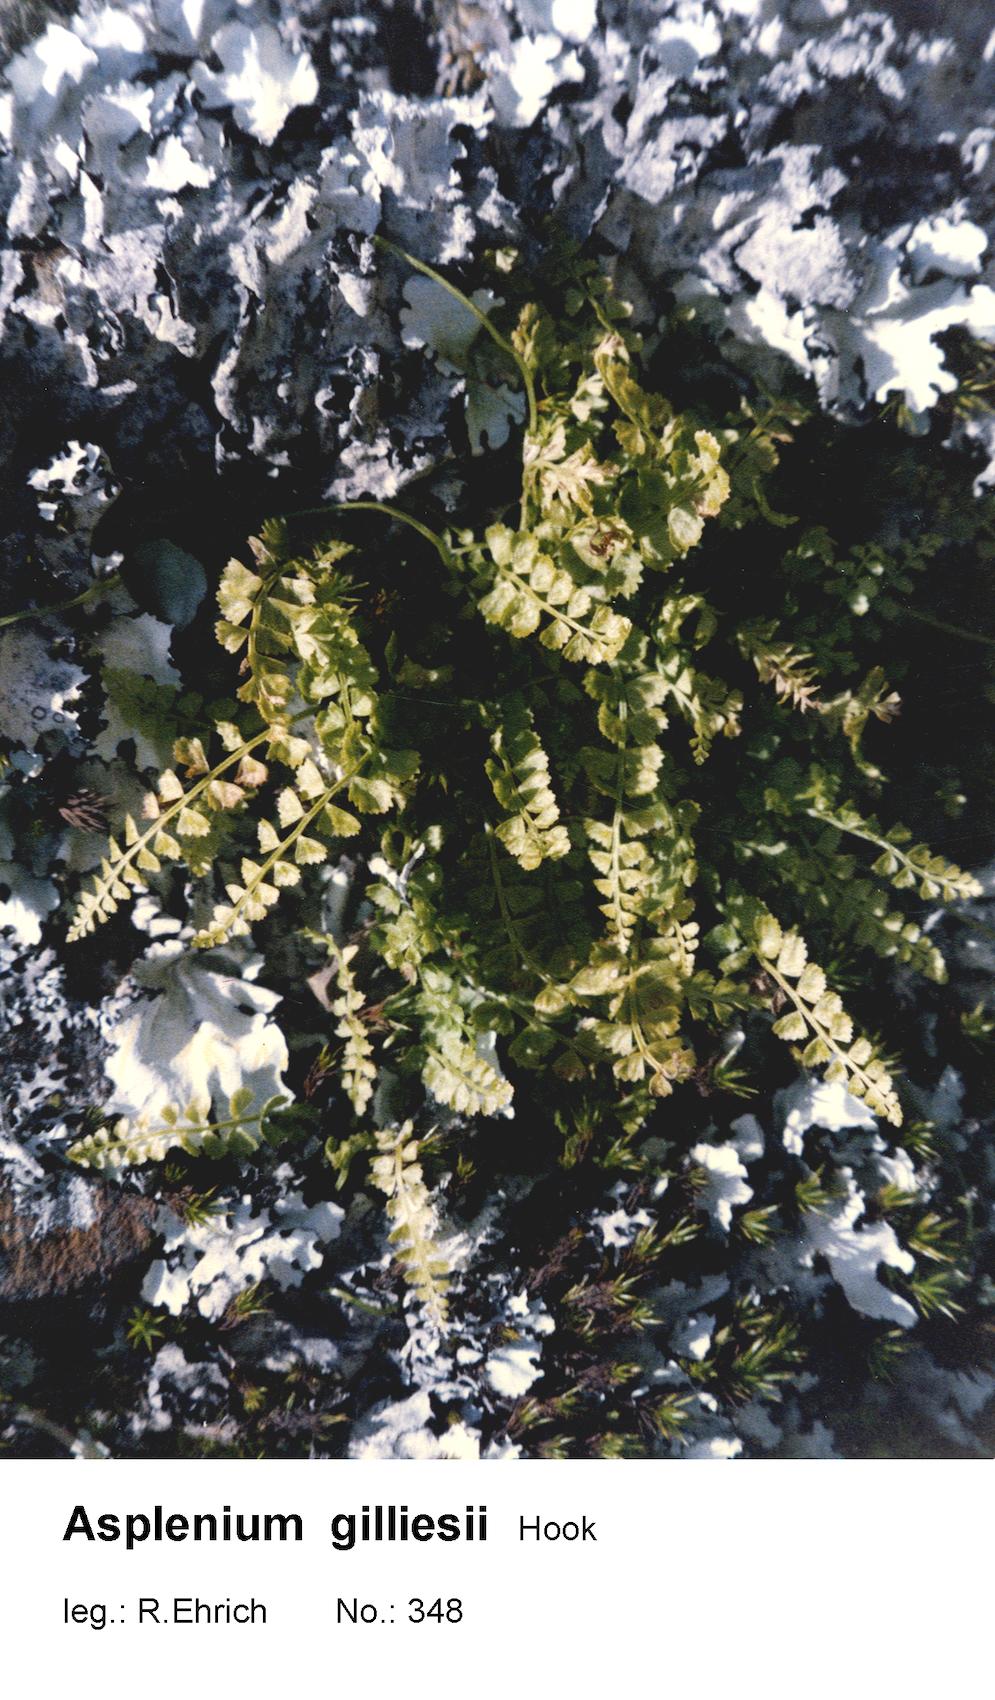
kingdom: Plantae
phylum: Tracheophyta
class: Polypodiopsida
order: Polypodiales
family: Aspleniaceae
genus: Asplenium
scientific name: Asplenium gilliesii
